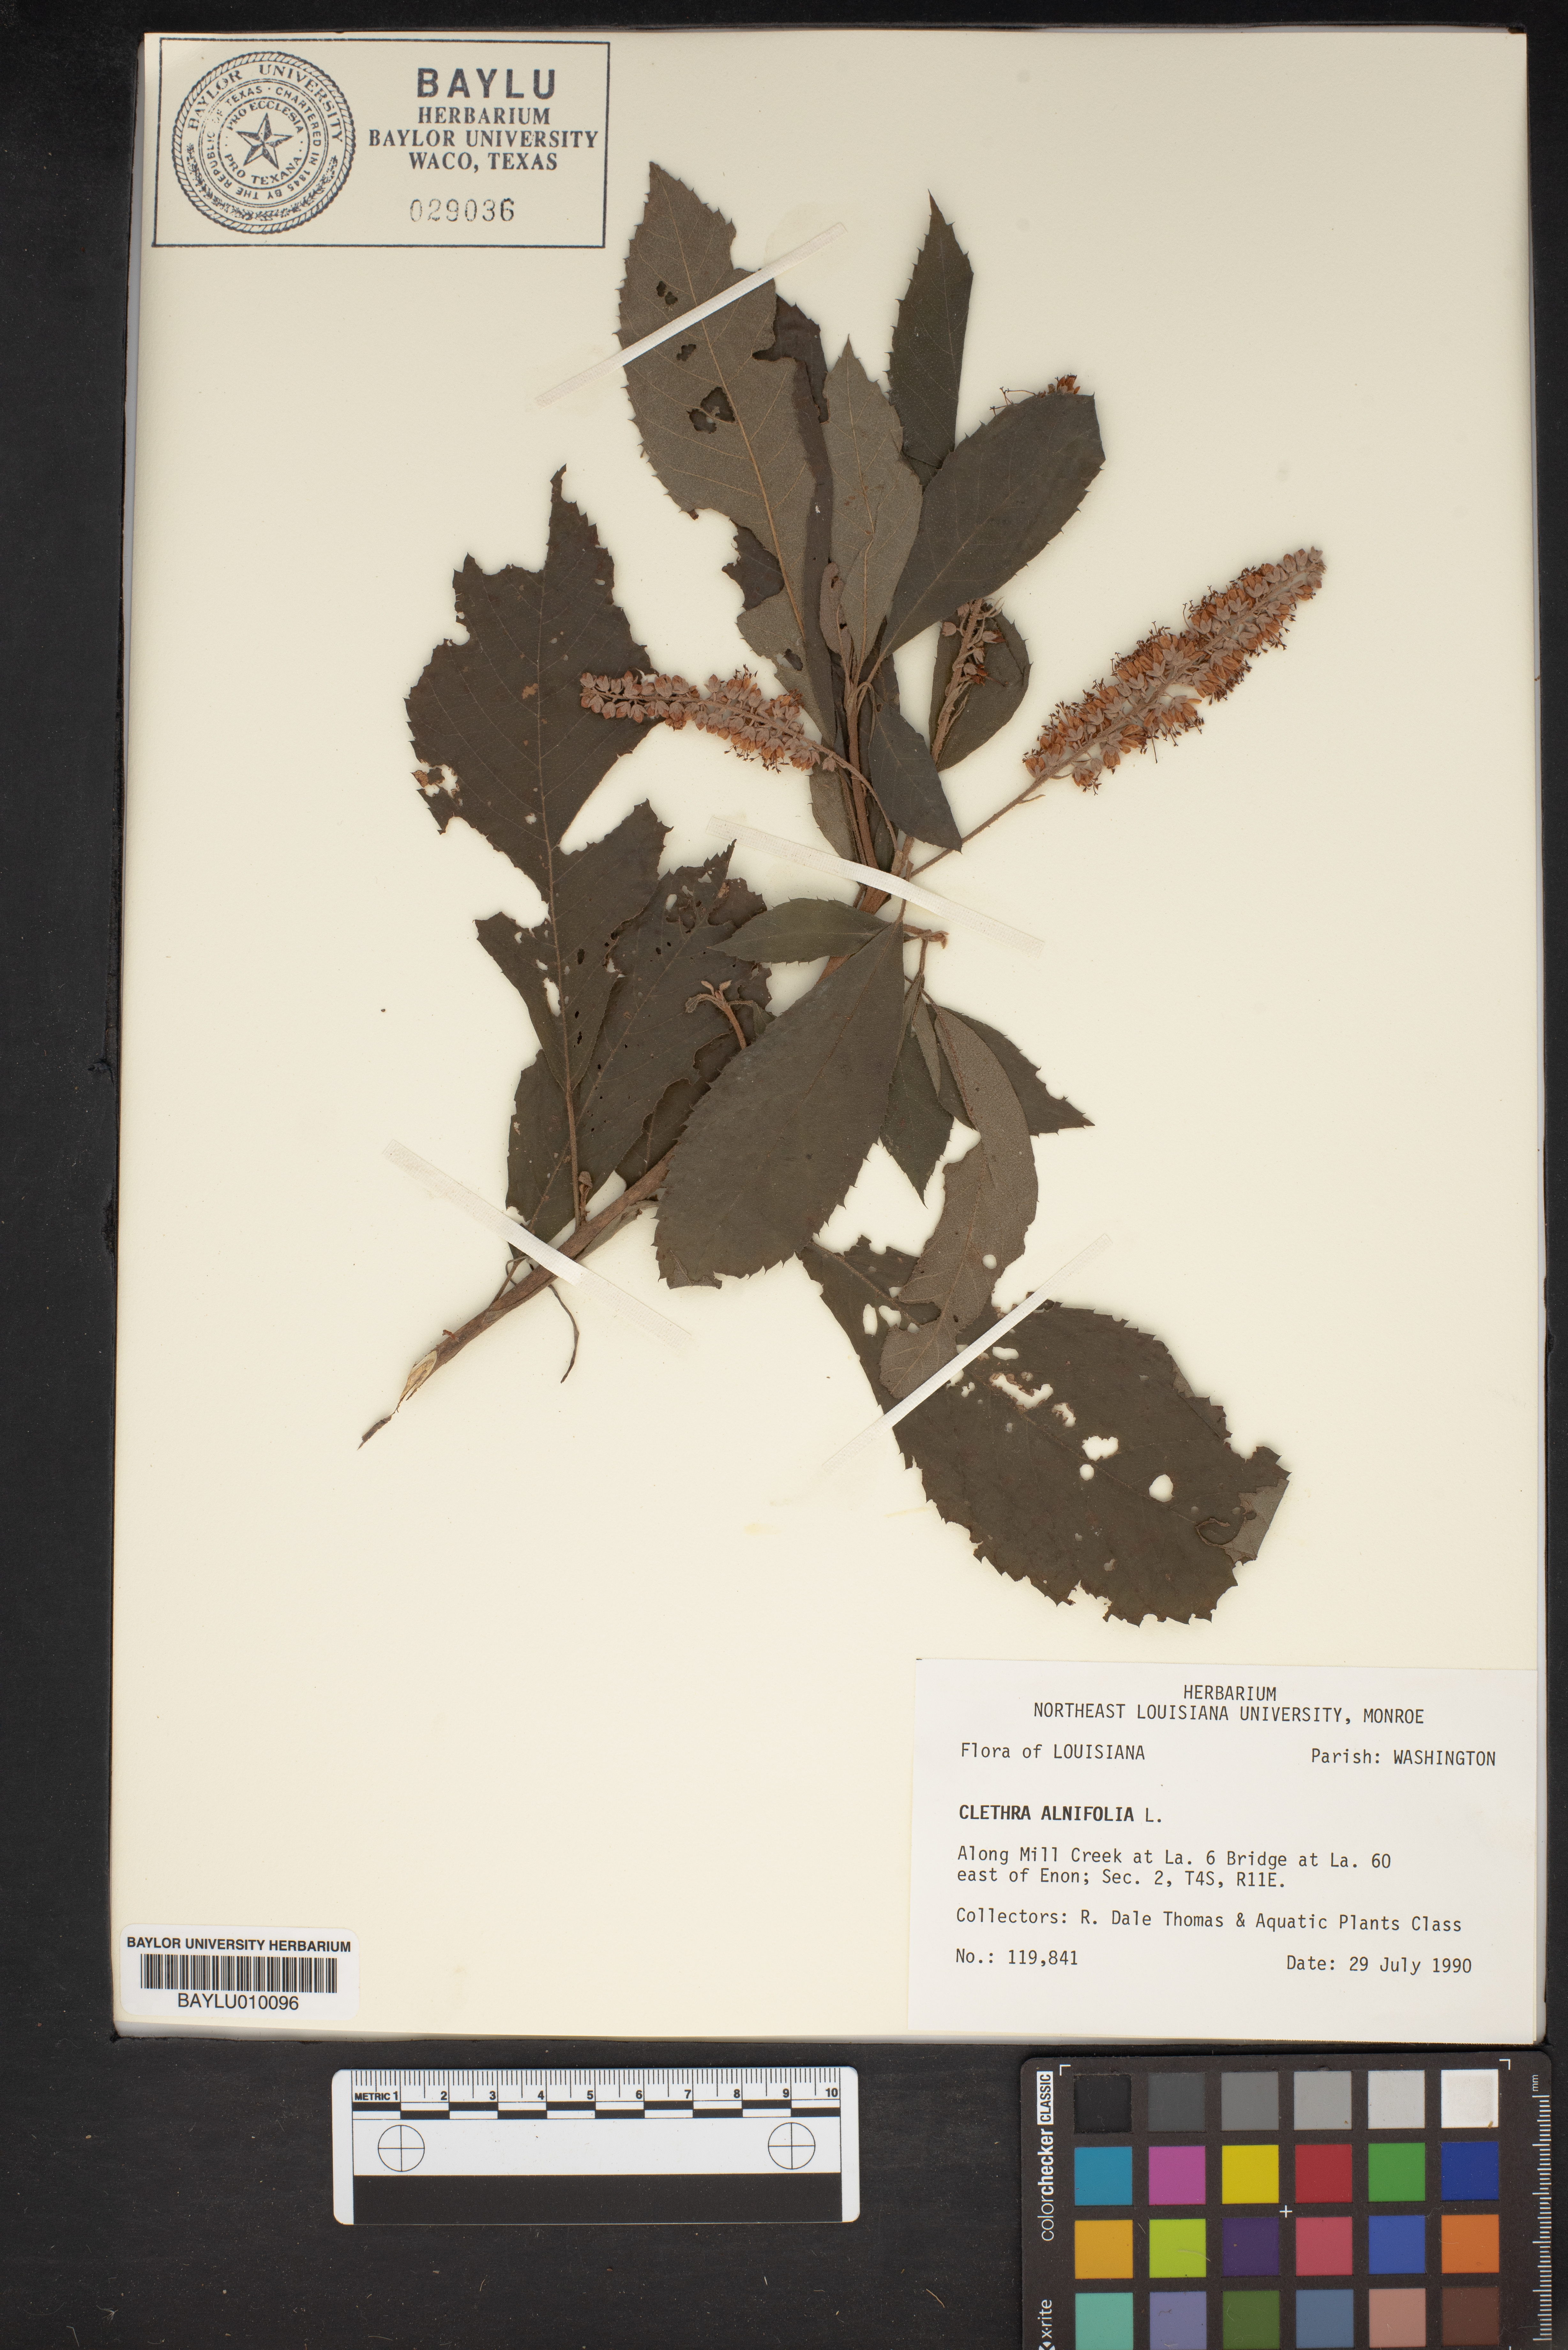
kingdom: Plantae
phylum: Tracheophyta
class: Magnoliopsida
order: Ericales
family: Clethraceae
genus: Clethra
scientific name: Clethra alnifolia
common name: Sweet pepperbush
